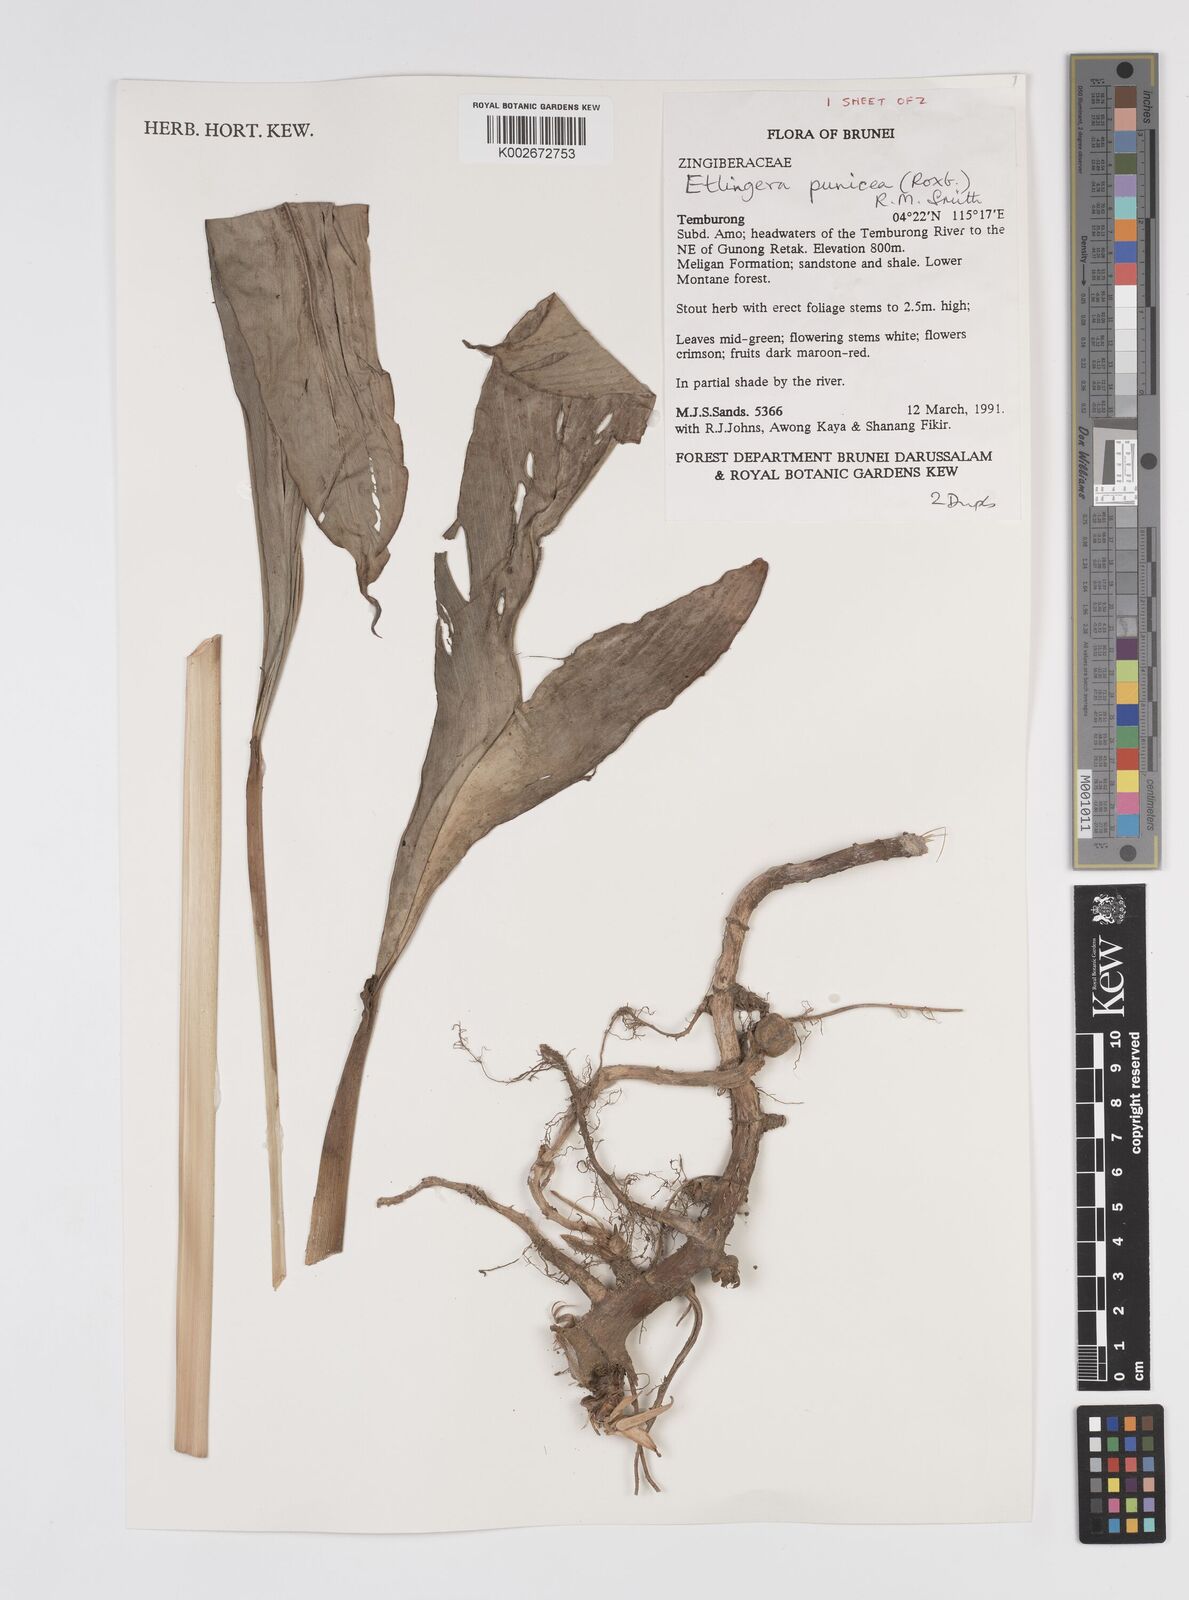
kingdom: Plantae
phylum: Tracheophyta
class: Liliopsida
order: Zingiberales
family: Zingiberaceae
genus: Etlingera
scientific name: Etlingera punicea
